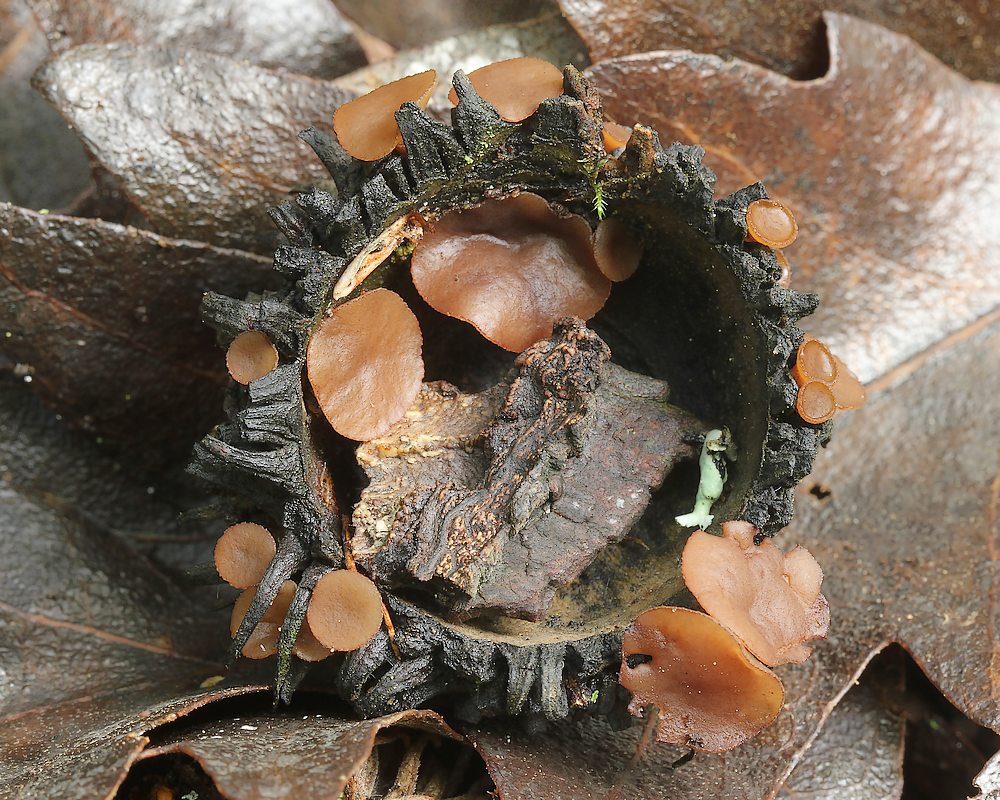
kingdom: Fungi
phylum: Ascomycota
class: Leotiomycetes
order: Helotiales
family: Rutstroemiaceae
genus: Lanzia
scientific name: Lanzia echinophila
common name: kastanie-brunskive
